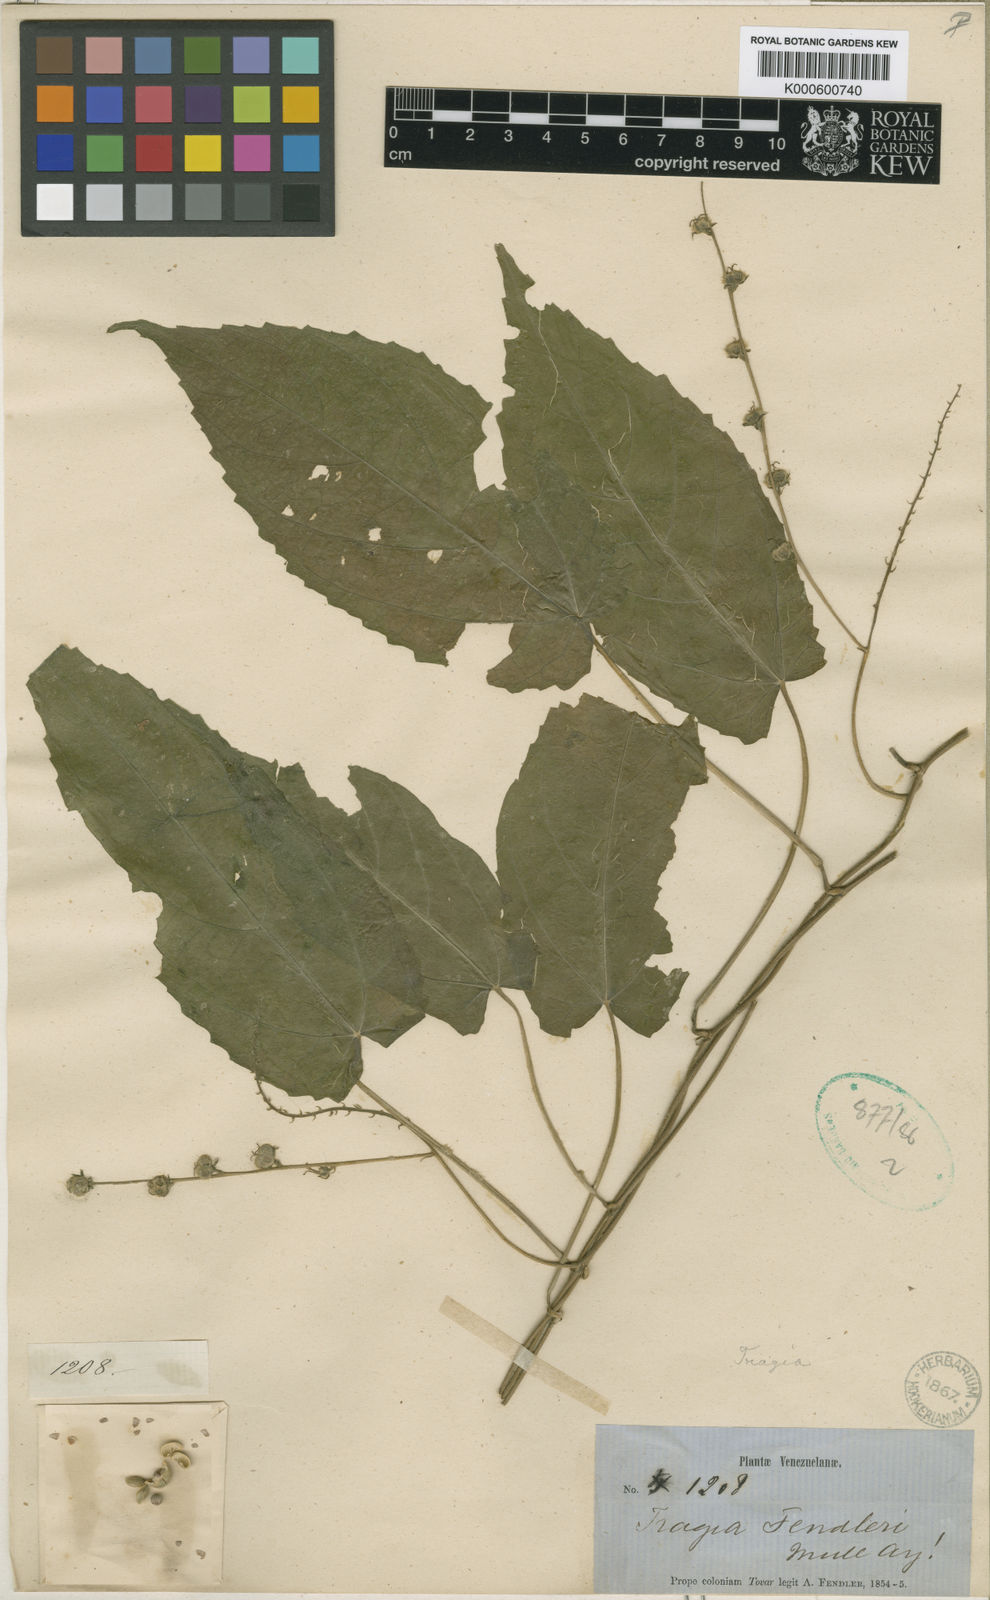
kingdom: Plantae
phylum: Tracheophyta
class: Magnoliopsida
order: Malpighiales
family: Euphorbiaceae
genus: Bia
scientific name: Bia
